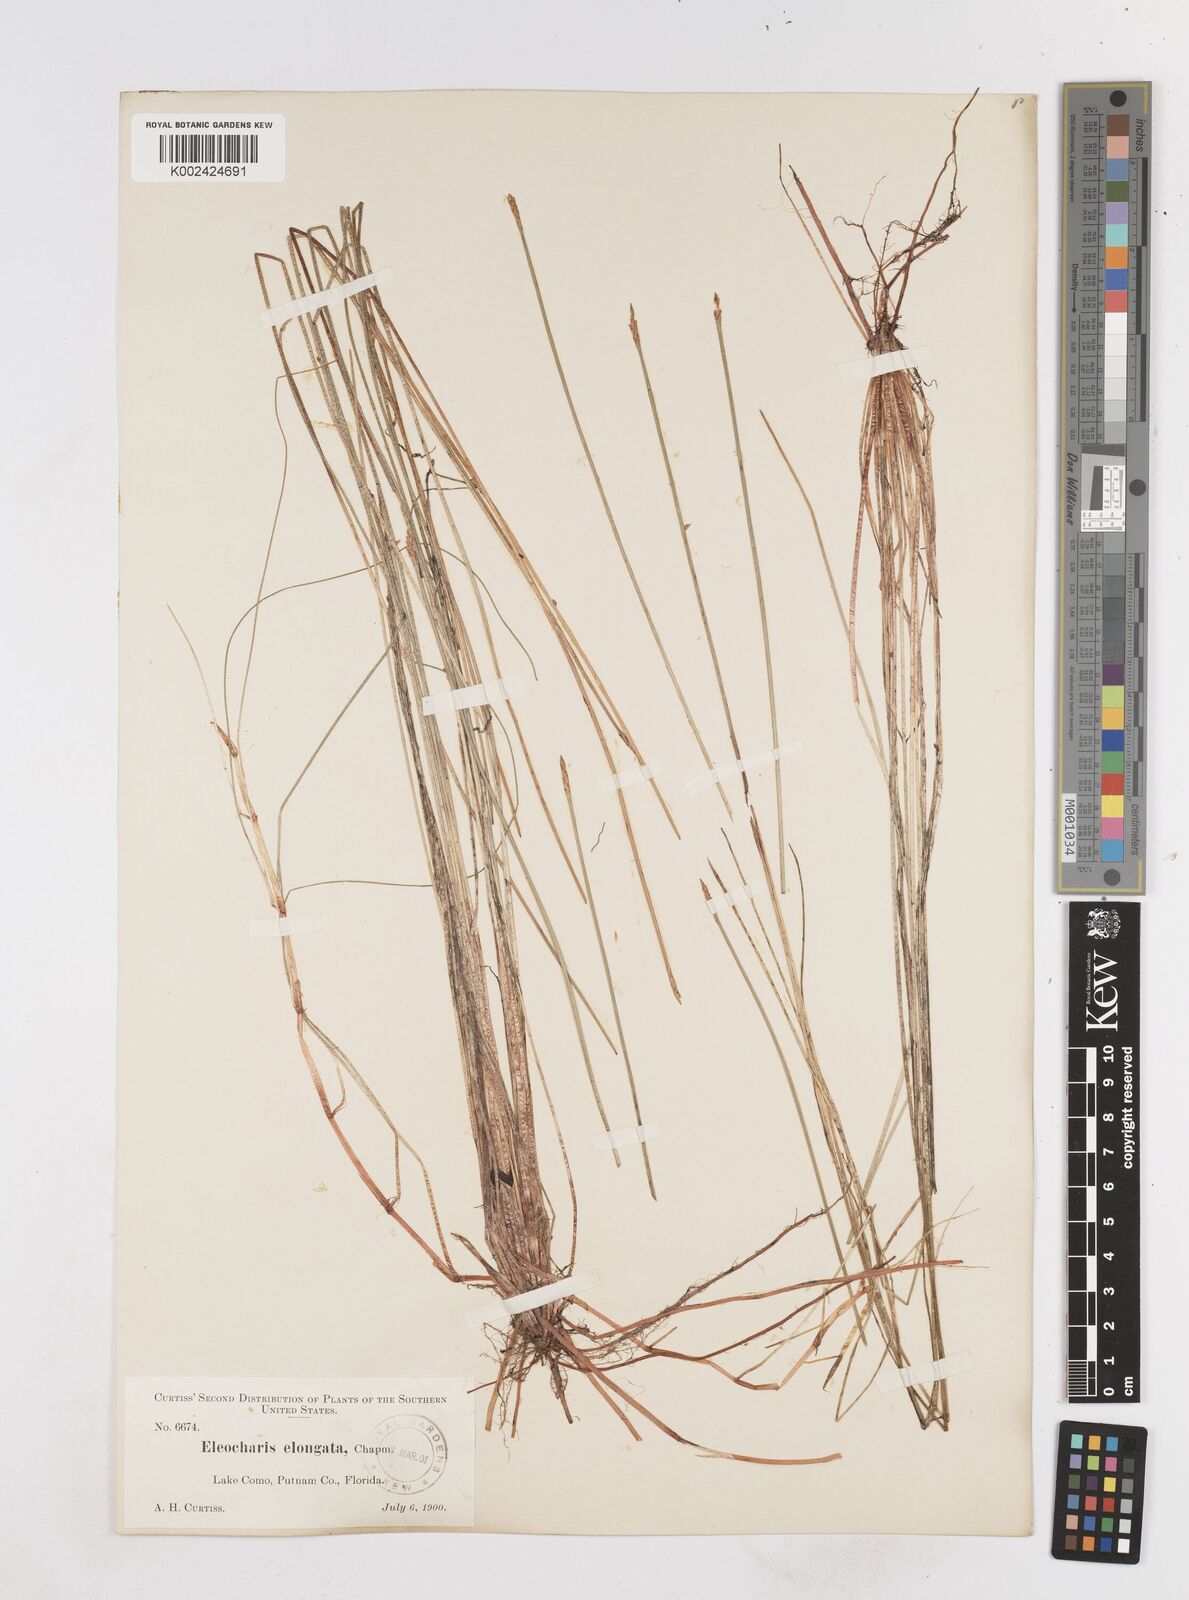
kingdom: Plantae
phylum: Tracheophyta
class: Liliopsida
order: Poales
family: Cyperaceae
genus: Eleocharis
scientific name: Eleocharis robbinsii
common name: Robbins' spikerush
